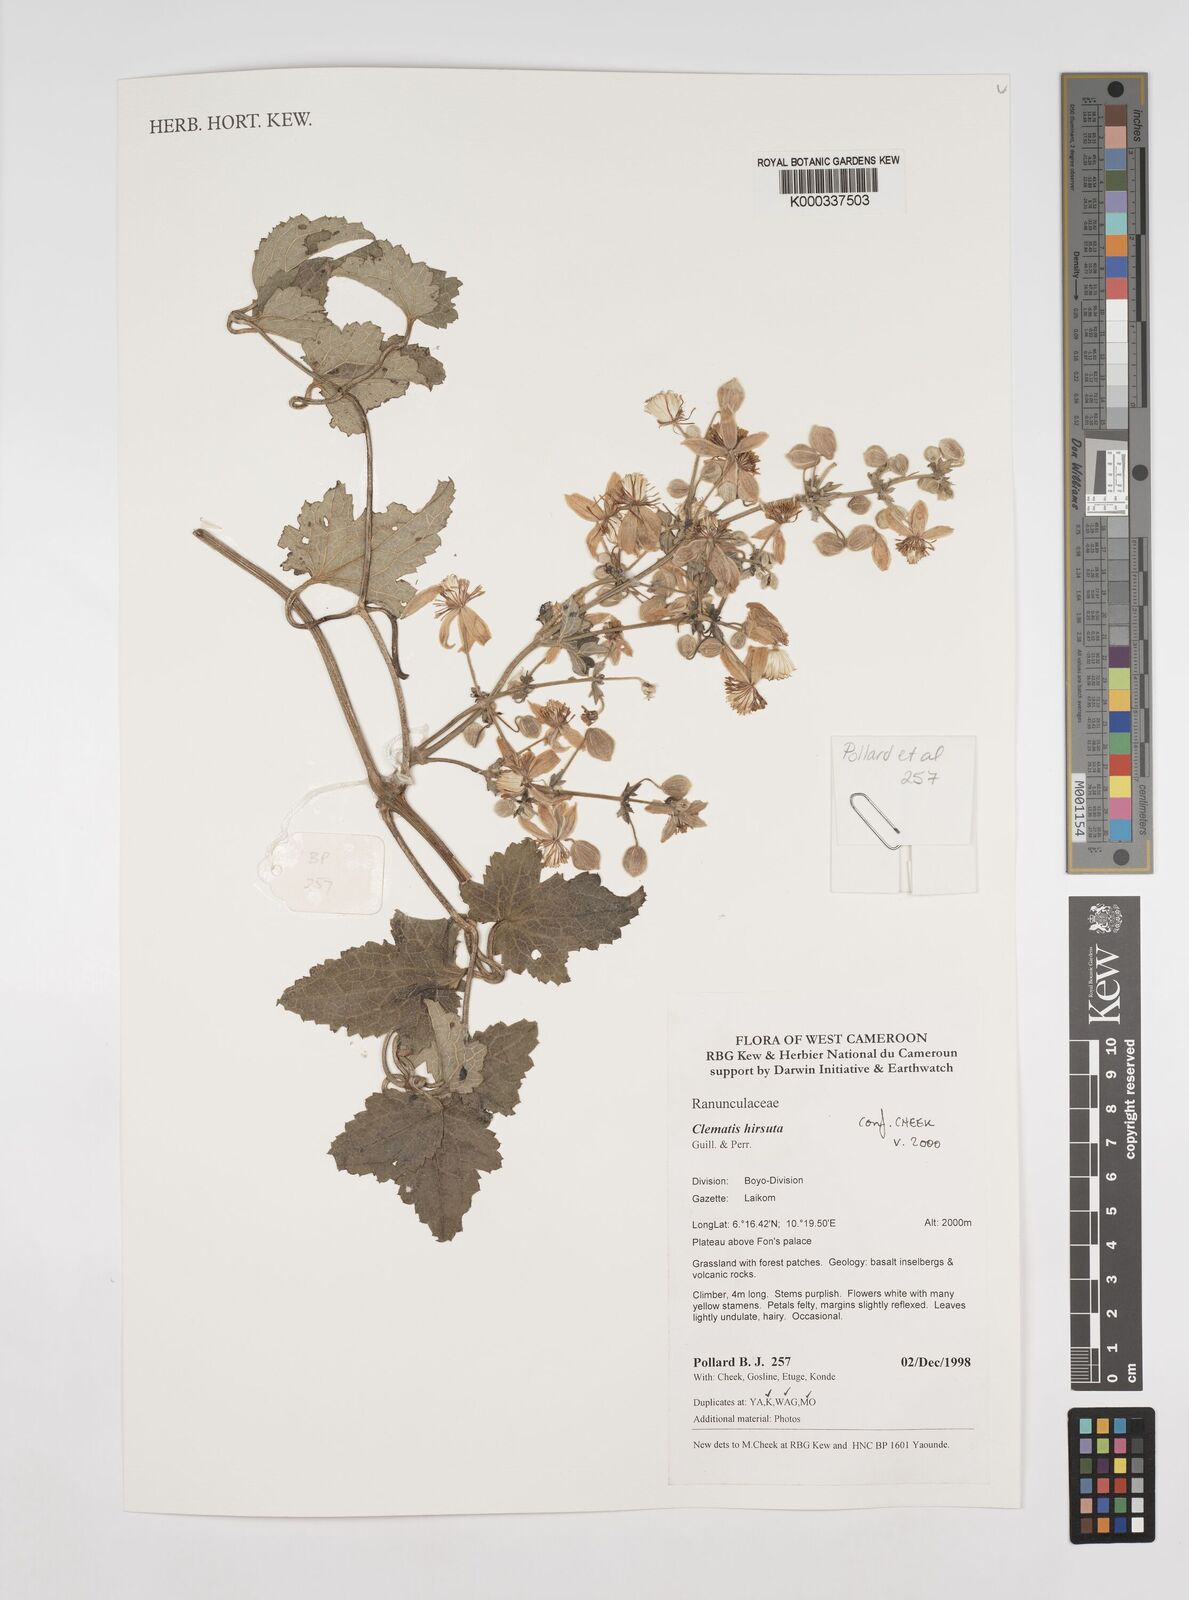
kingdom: Plantae
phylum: Tracheophyta
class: Magnoliopsida
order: Ranunculales
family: Ranunculaceae
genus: Clematis
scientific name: Clematis hirsuta
